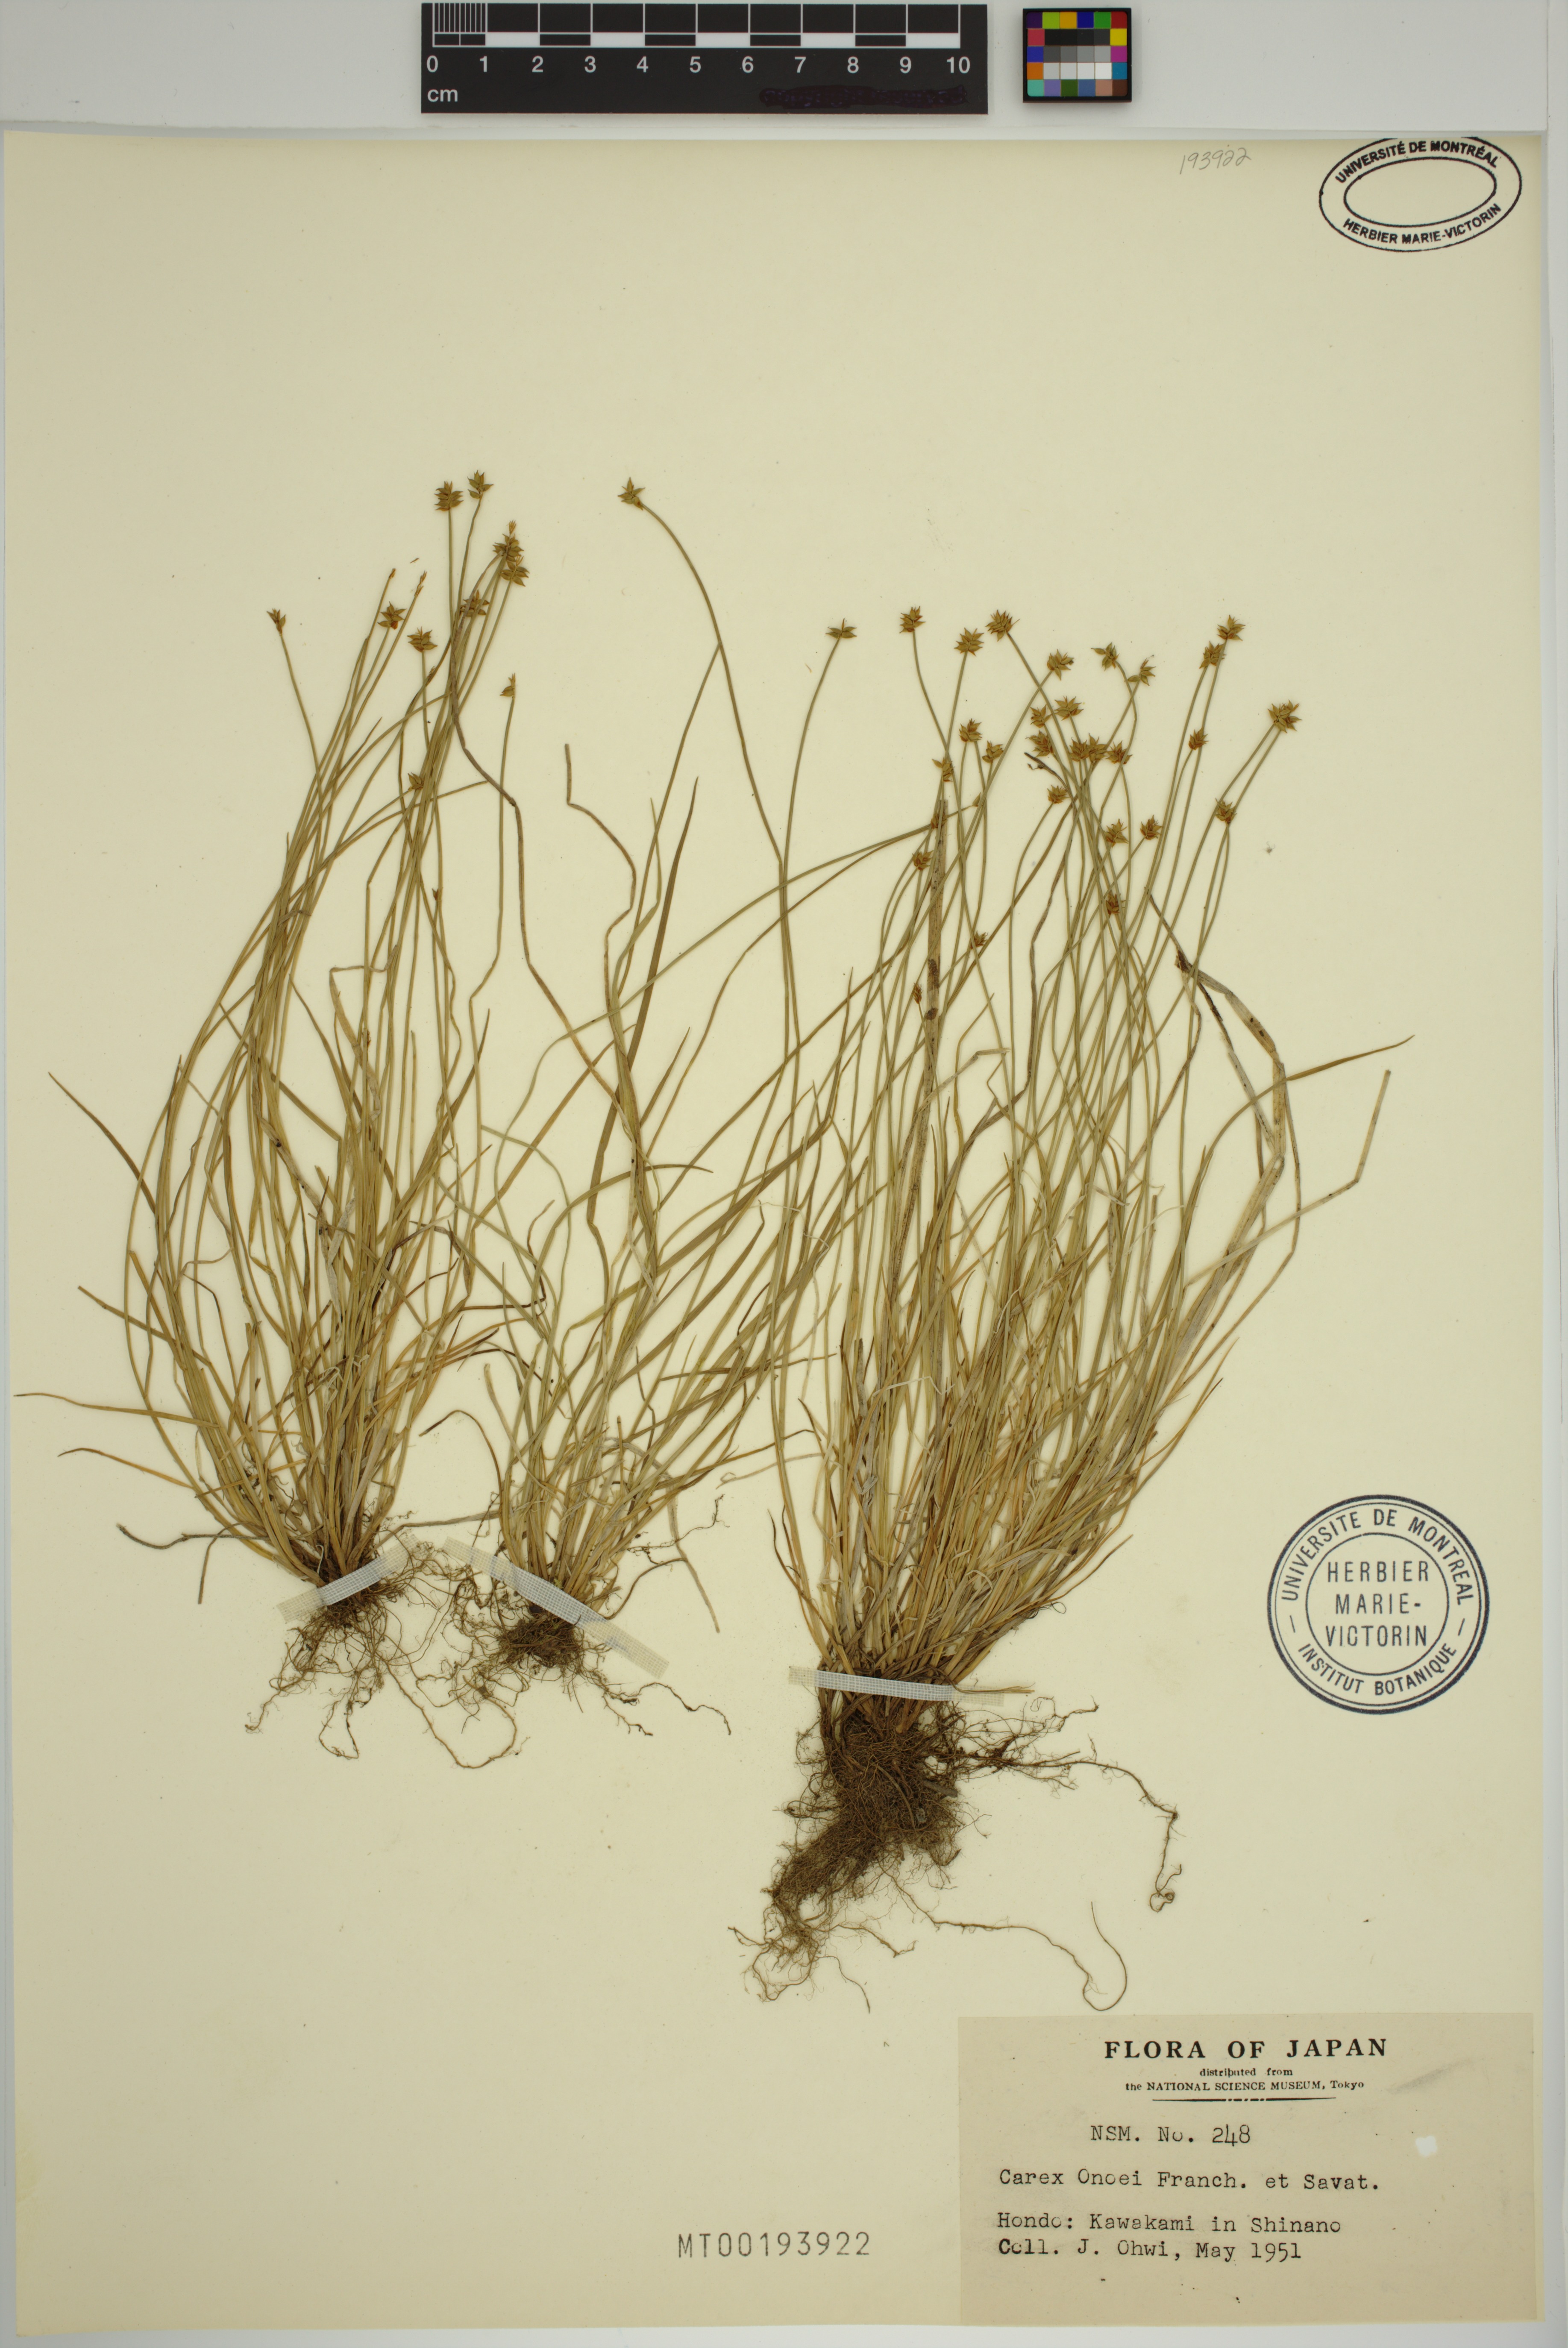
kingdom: Plantae
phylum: Tracheophyta
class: Liliopsida
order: Poales
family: Cyperaceae
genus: Carex
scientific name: Carex onoei
